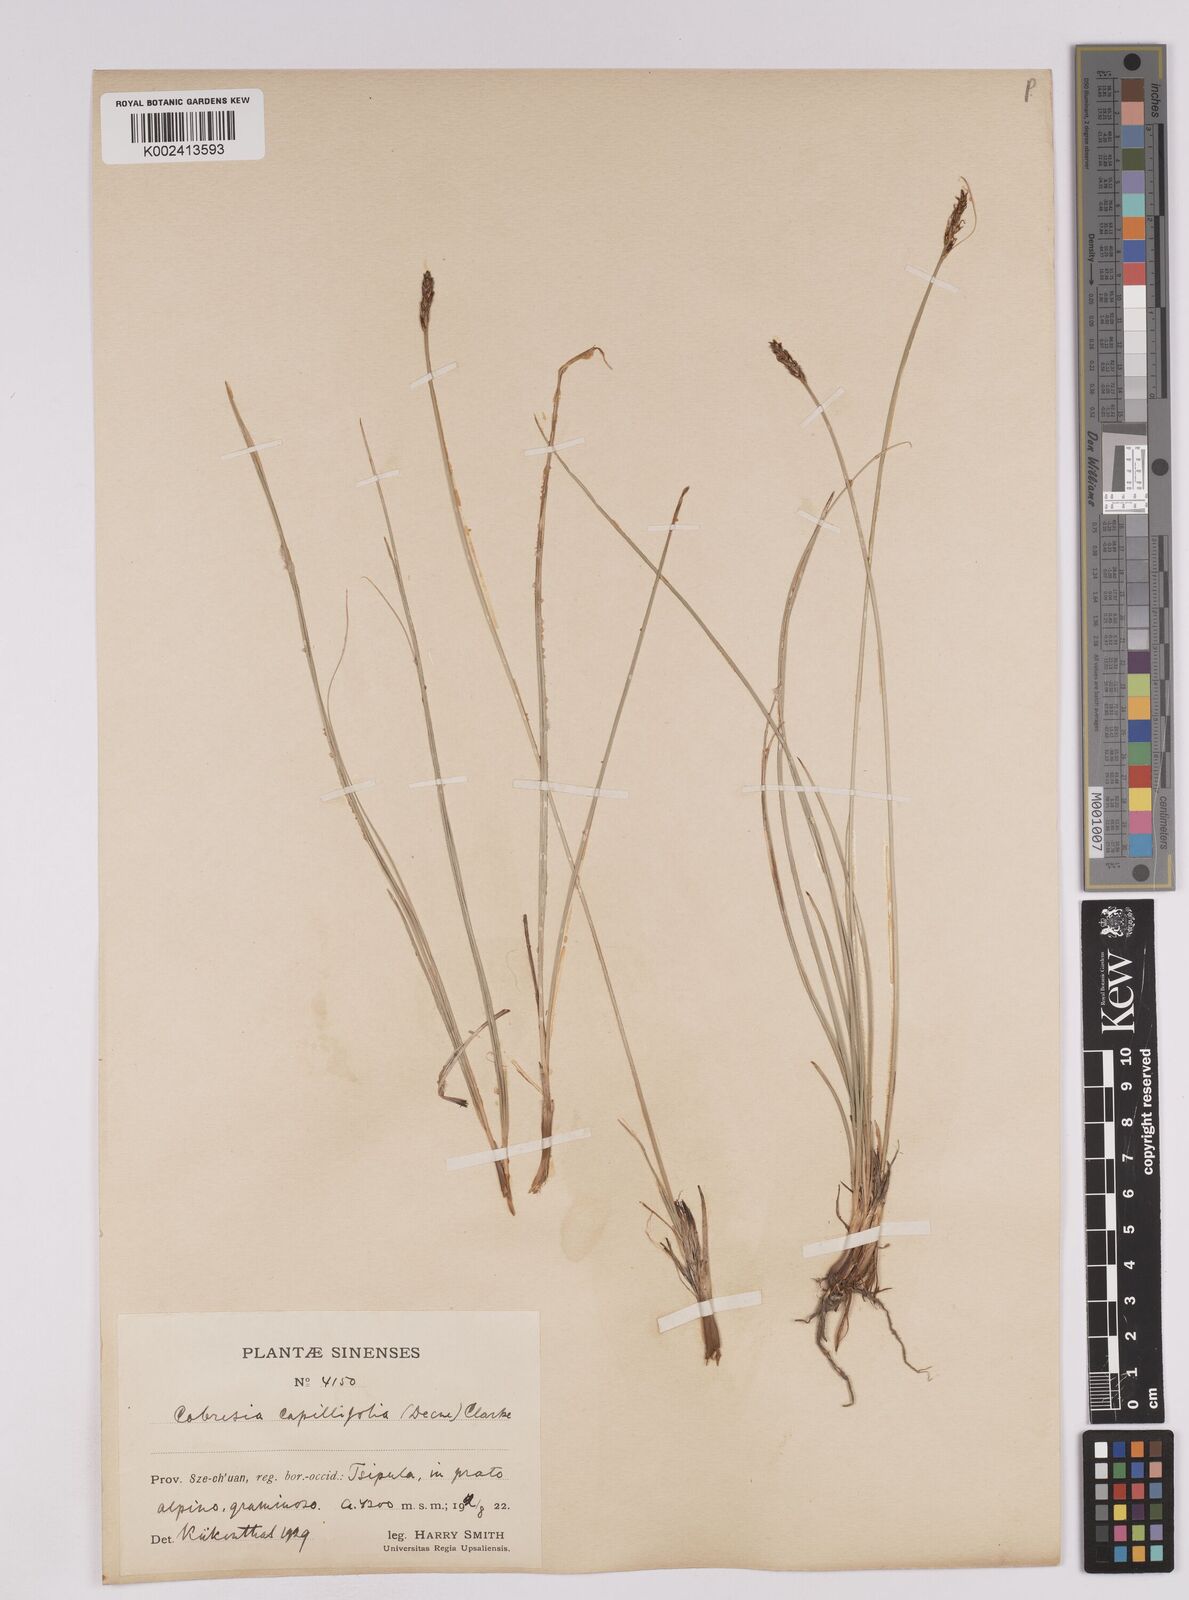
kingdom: Plantae
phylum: Tracheophyta
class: Liliopsida
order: Poales
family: Cyperaceae
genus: Carex
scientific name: Carex capillifolia
